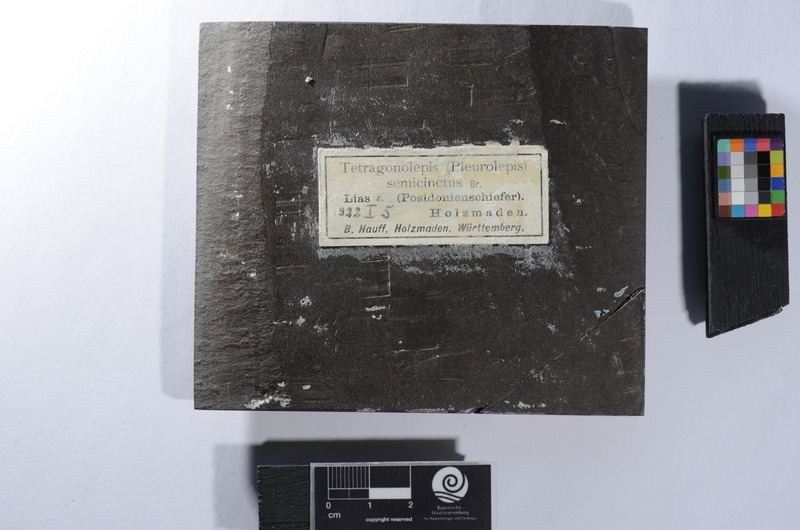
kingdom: Animalia
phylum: Chordata
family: Dapediidae
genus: Dapedium
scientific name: Dapedium
